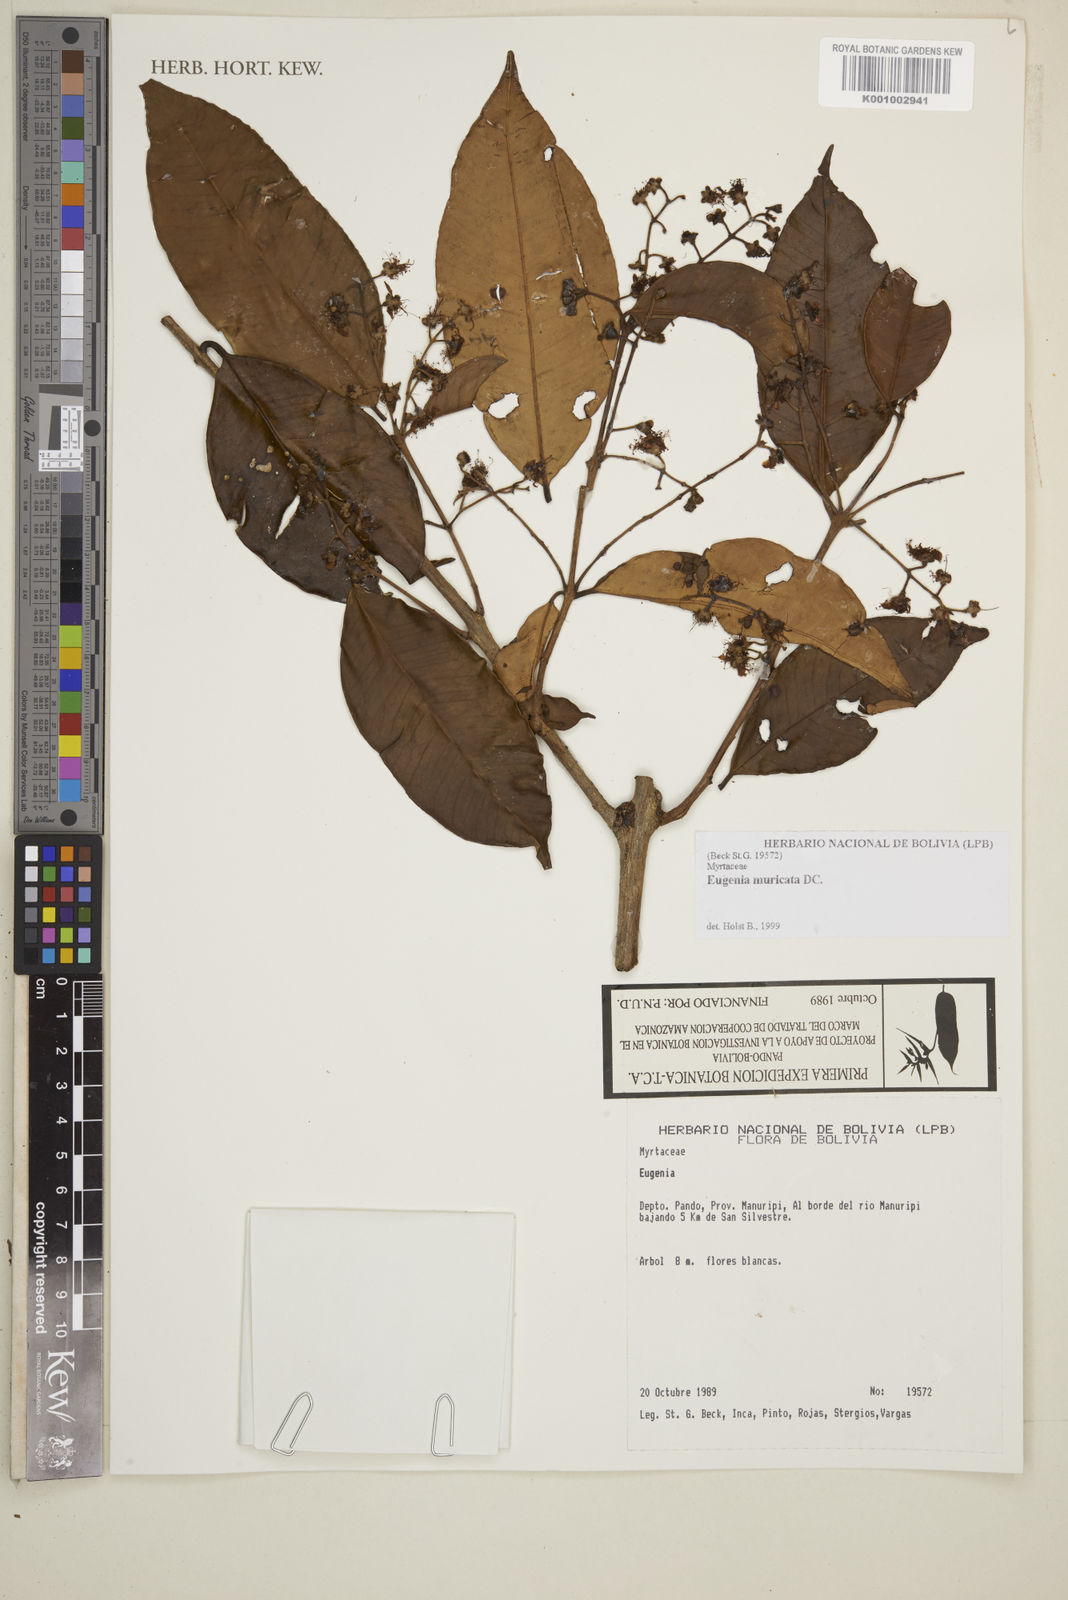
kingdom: Plantae
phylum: Tracheophyta
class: Magnoliopsida
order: Myrtales
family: Myrtaceae
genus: Eugenia
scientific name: Eugenia muricata
